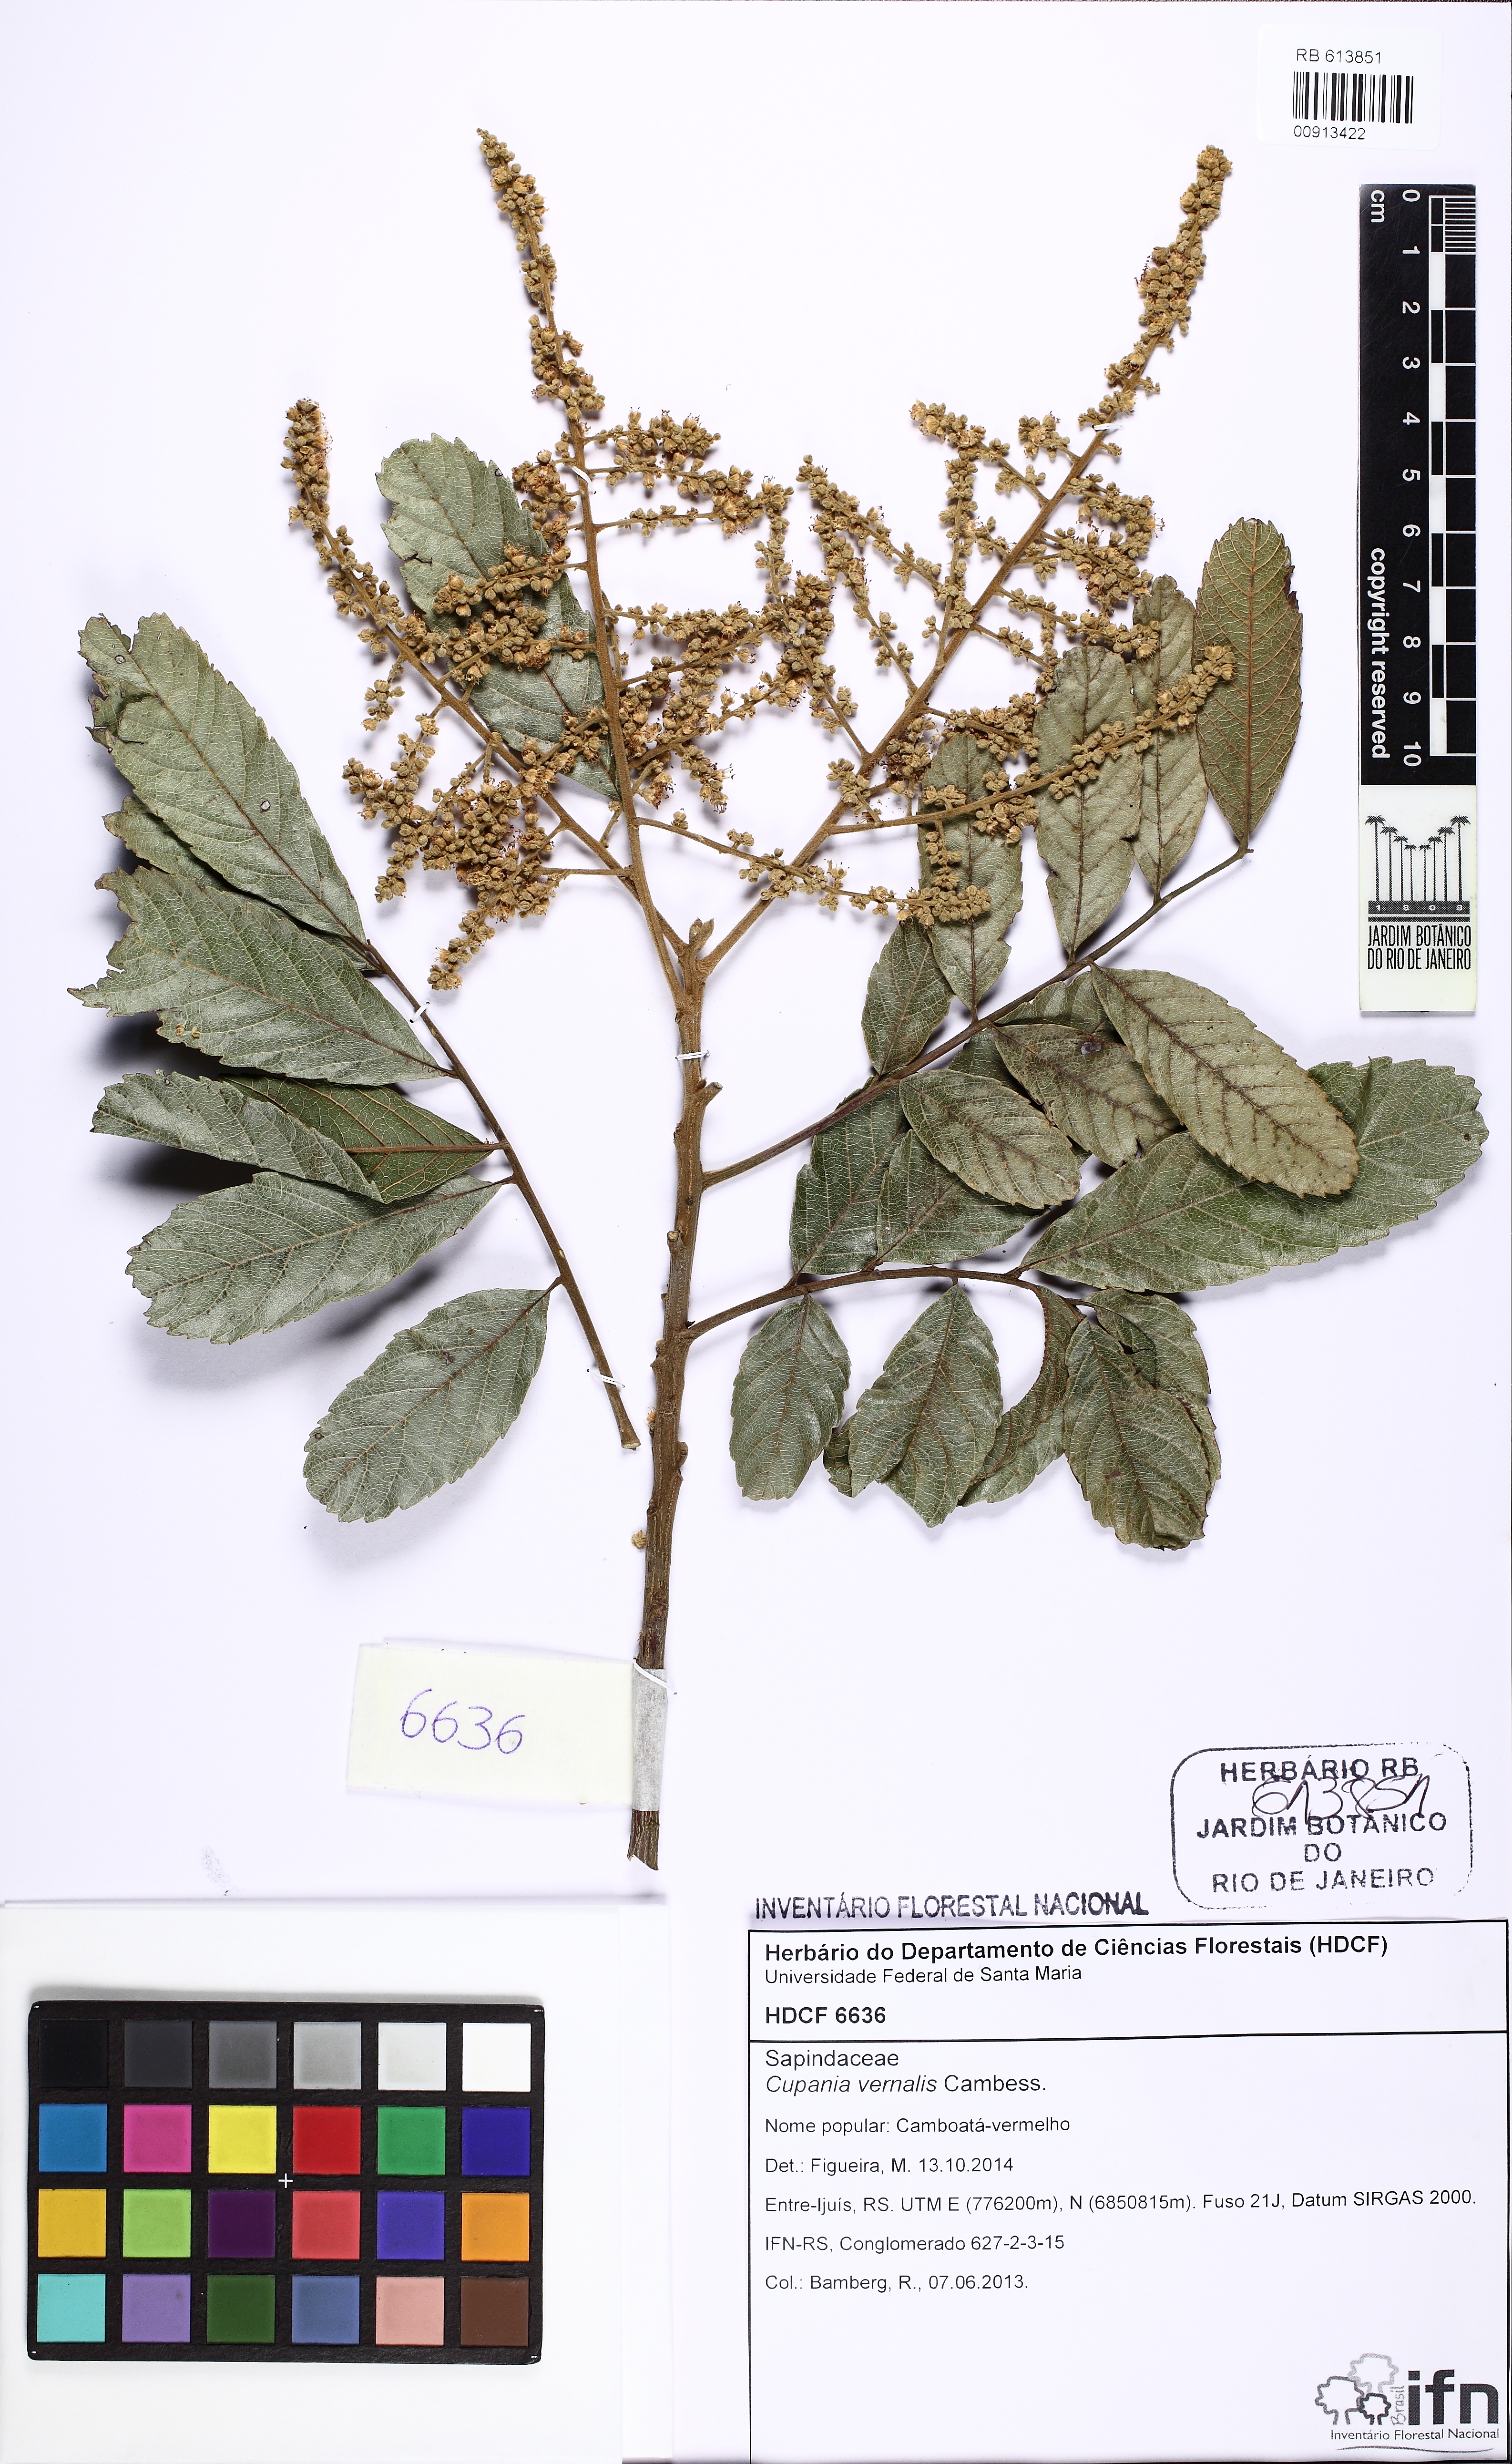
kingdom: Plantae
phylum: Tracheophyta
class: Magnoliopsida
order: Sapindales
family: Sapindaceae
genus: Cupania
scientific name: Cupania vernalis
